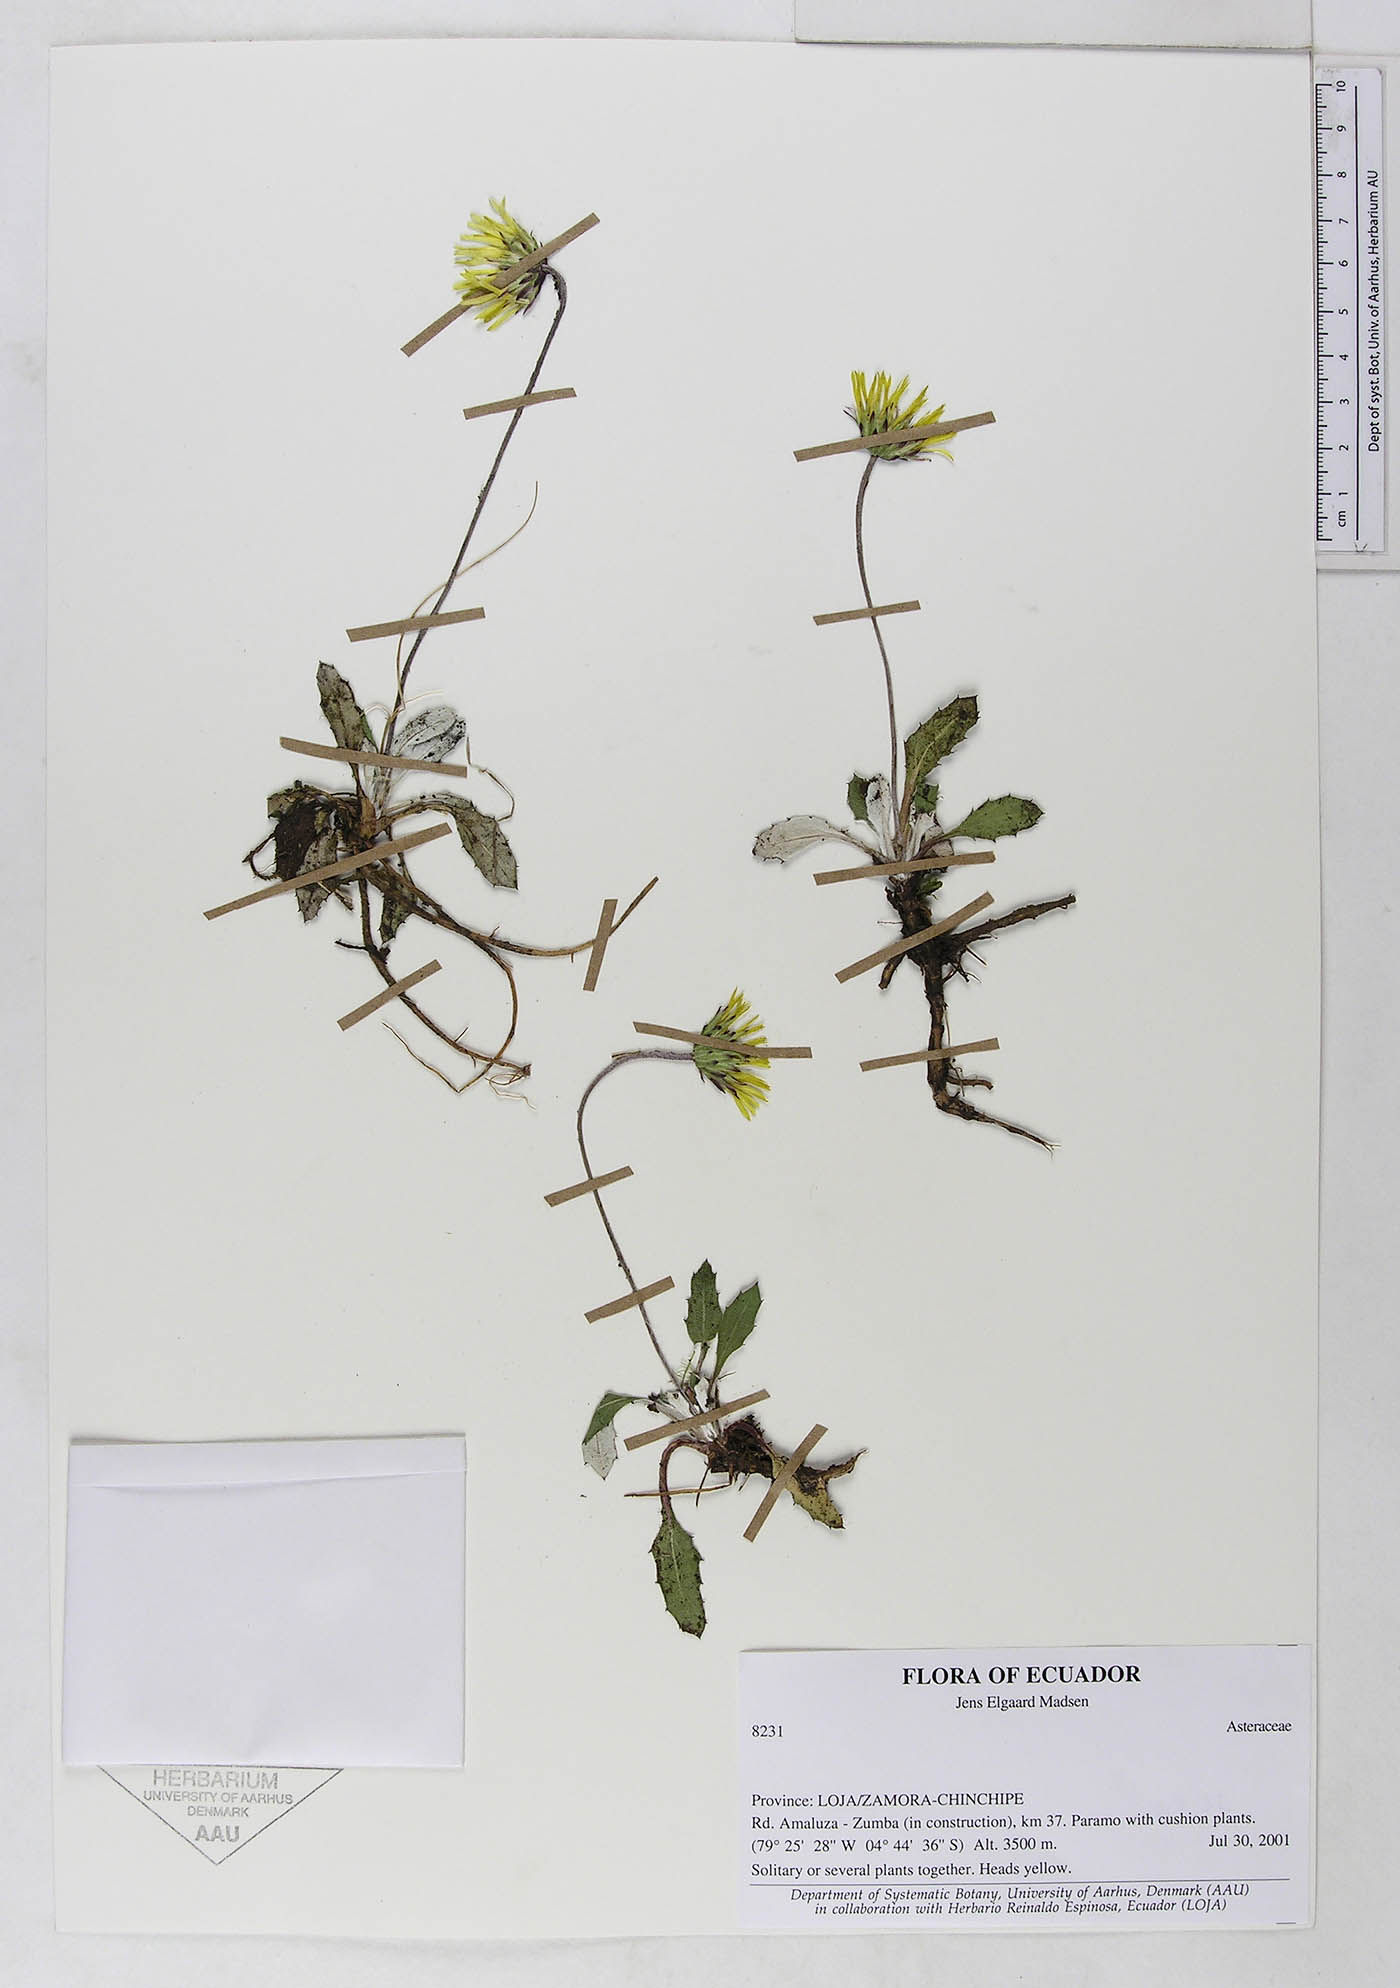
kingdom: Plantae
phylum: Tracheophyta
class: Magnoliopsida
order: Asterales
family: Asteraceae
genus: Chrysactinium
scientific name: Chrysactinium acaule
